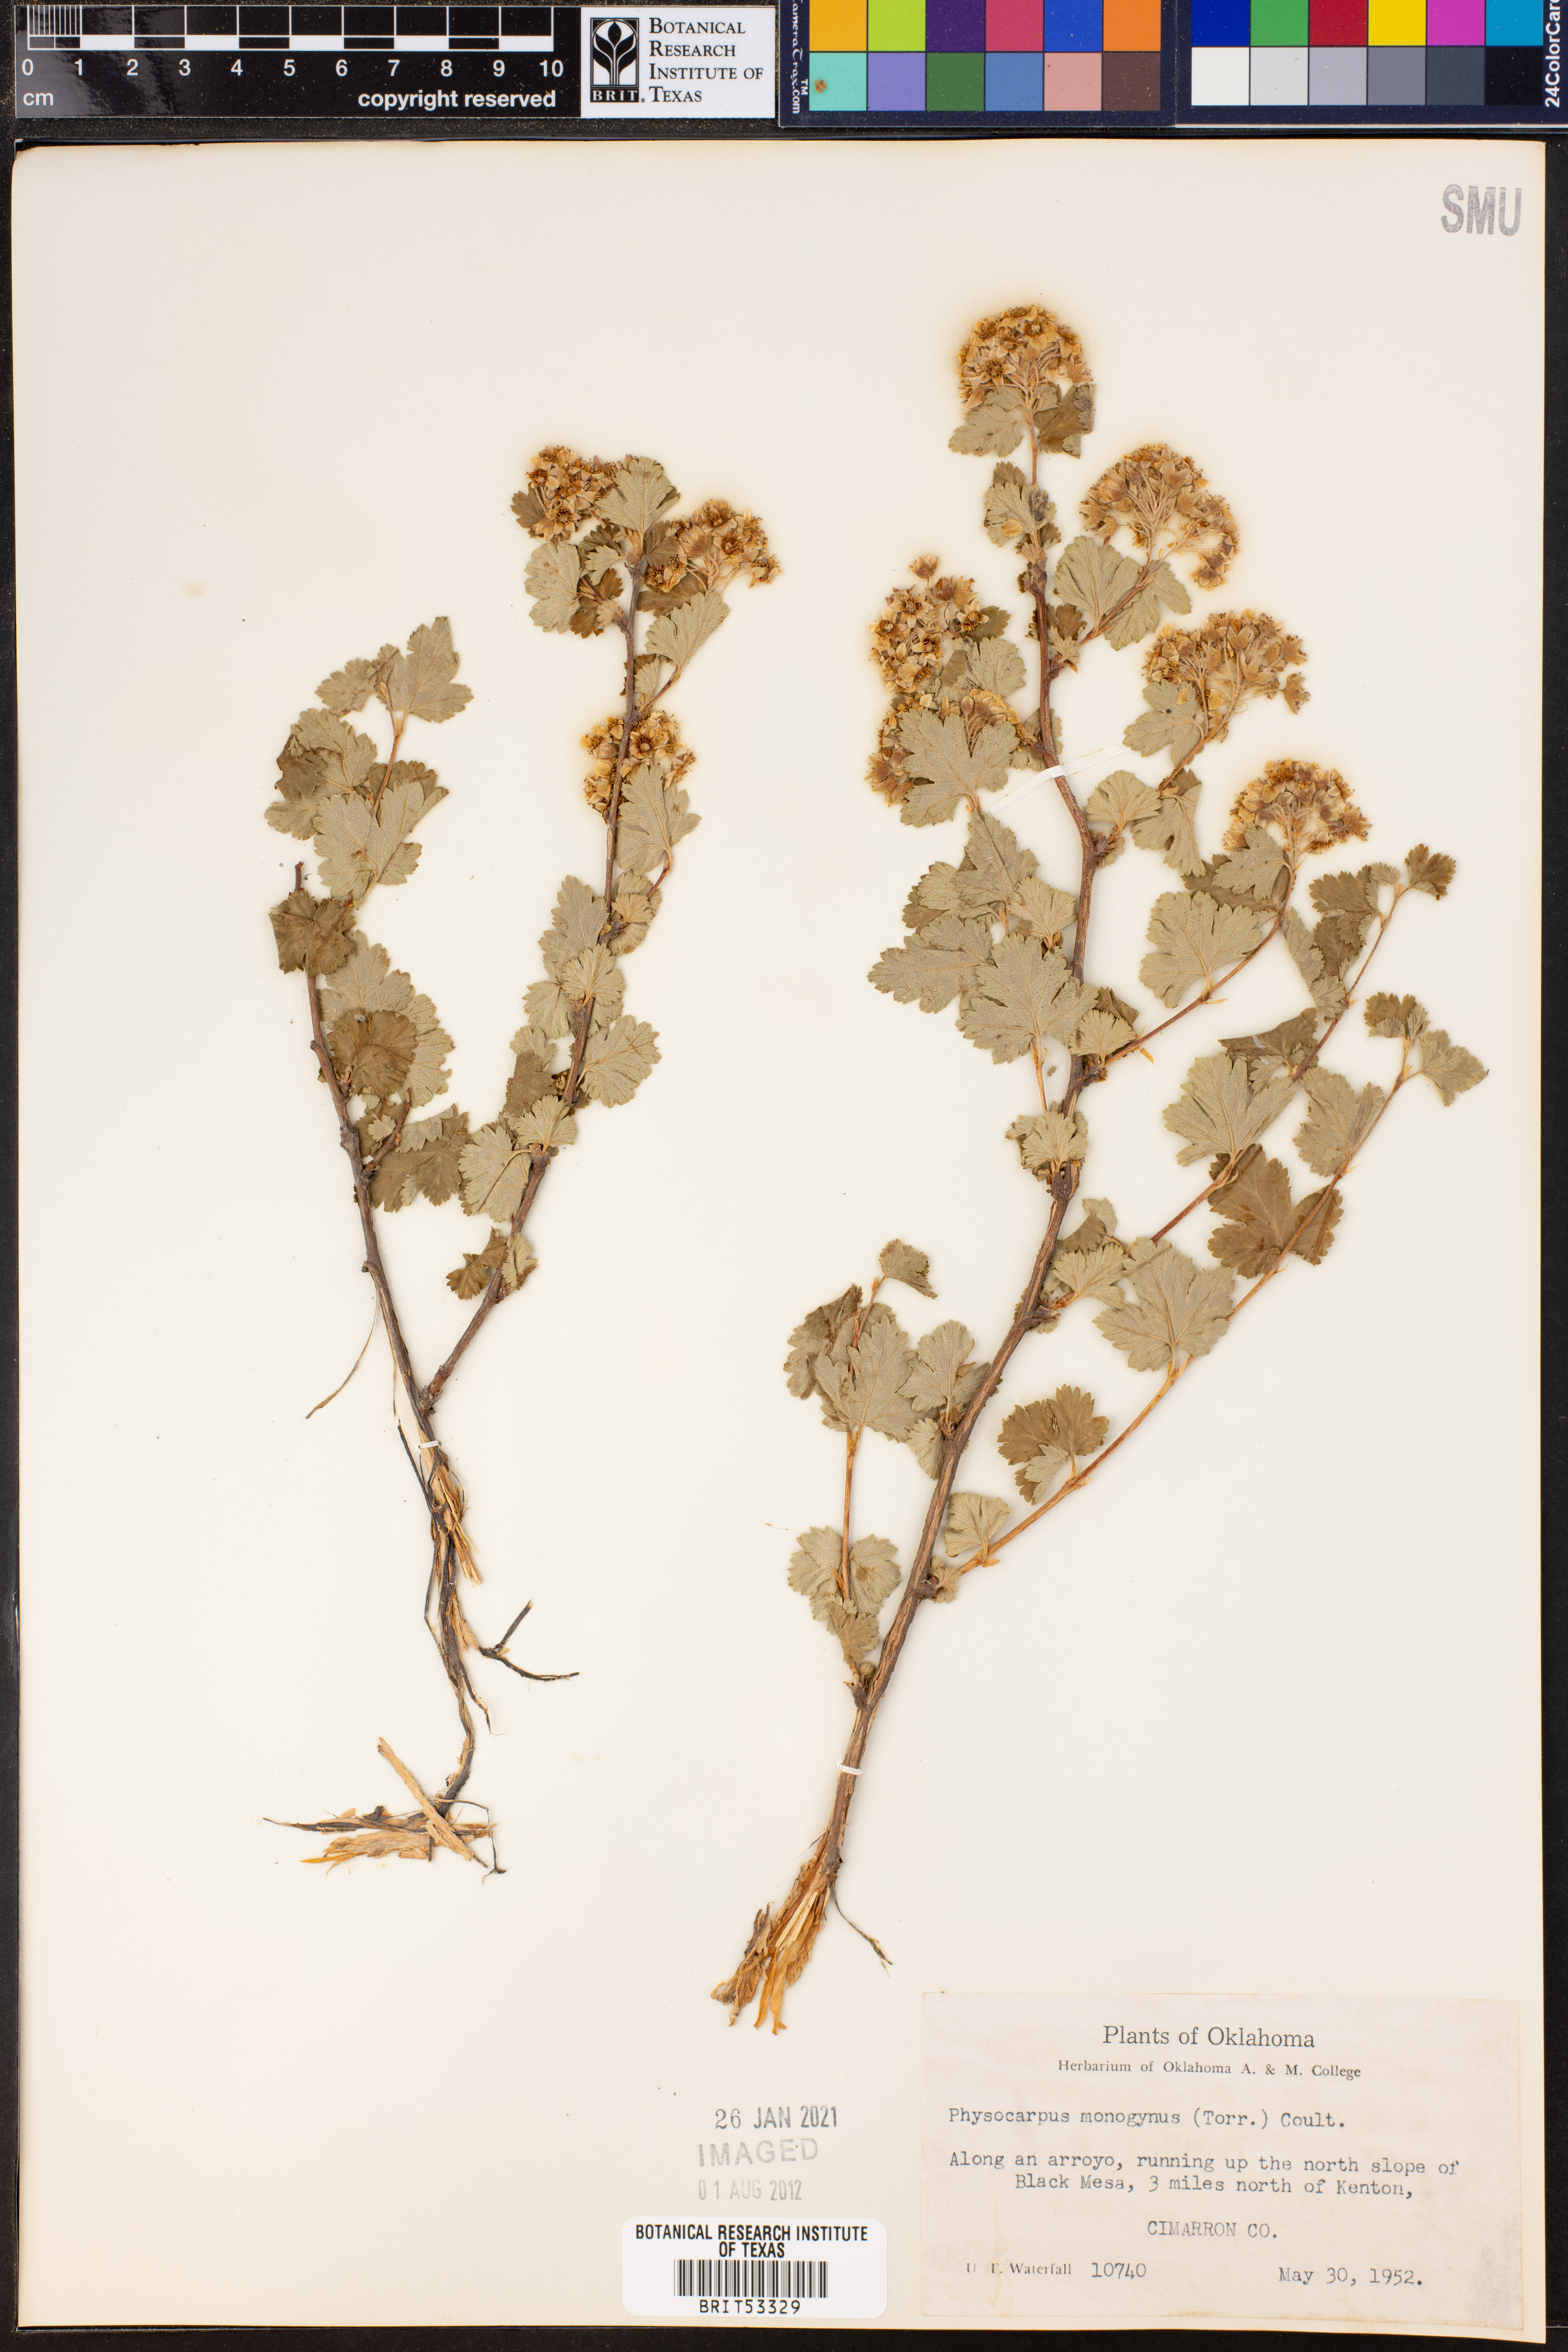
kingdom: Plantae
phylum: Tracheophyta
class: Magnoliopsida
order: Rosales
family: Rosaceae
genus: Physocarpus
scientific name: Physocarpus monogynus
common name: Mountain ninebark
